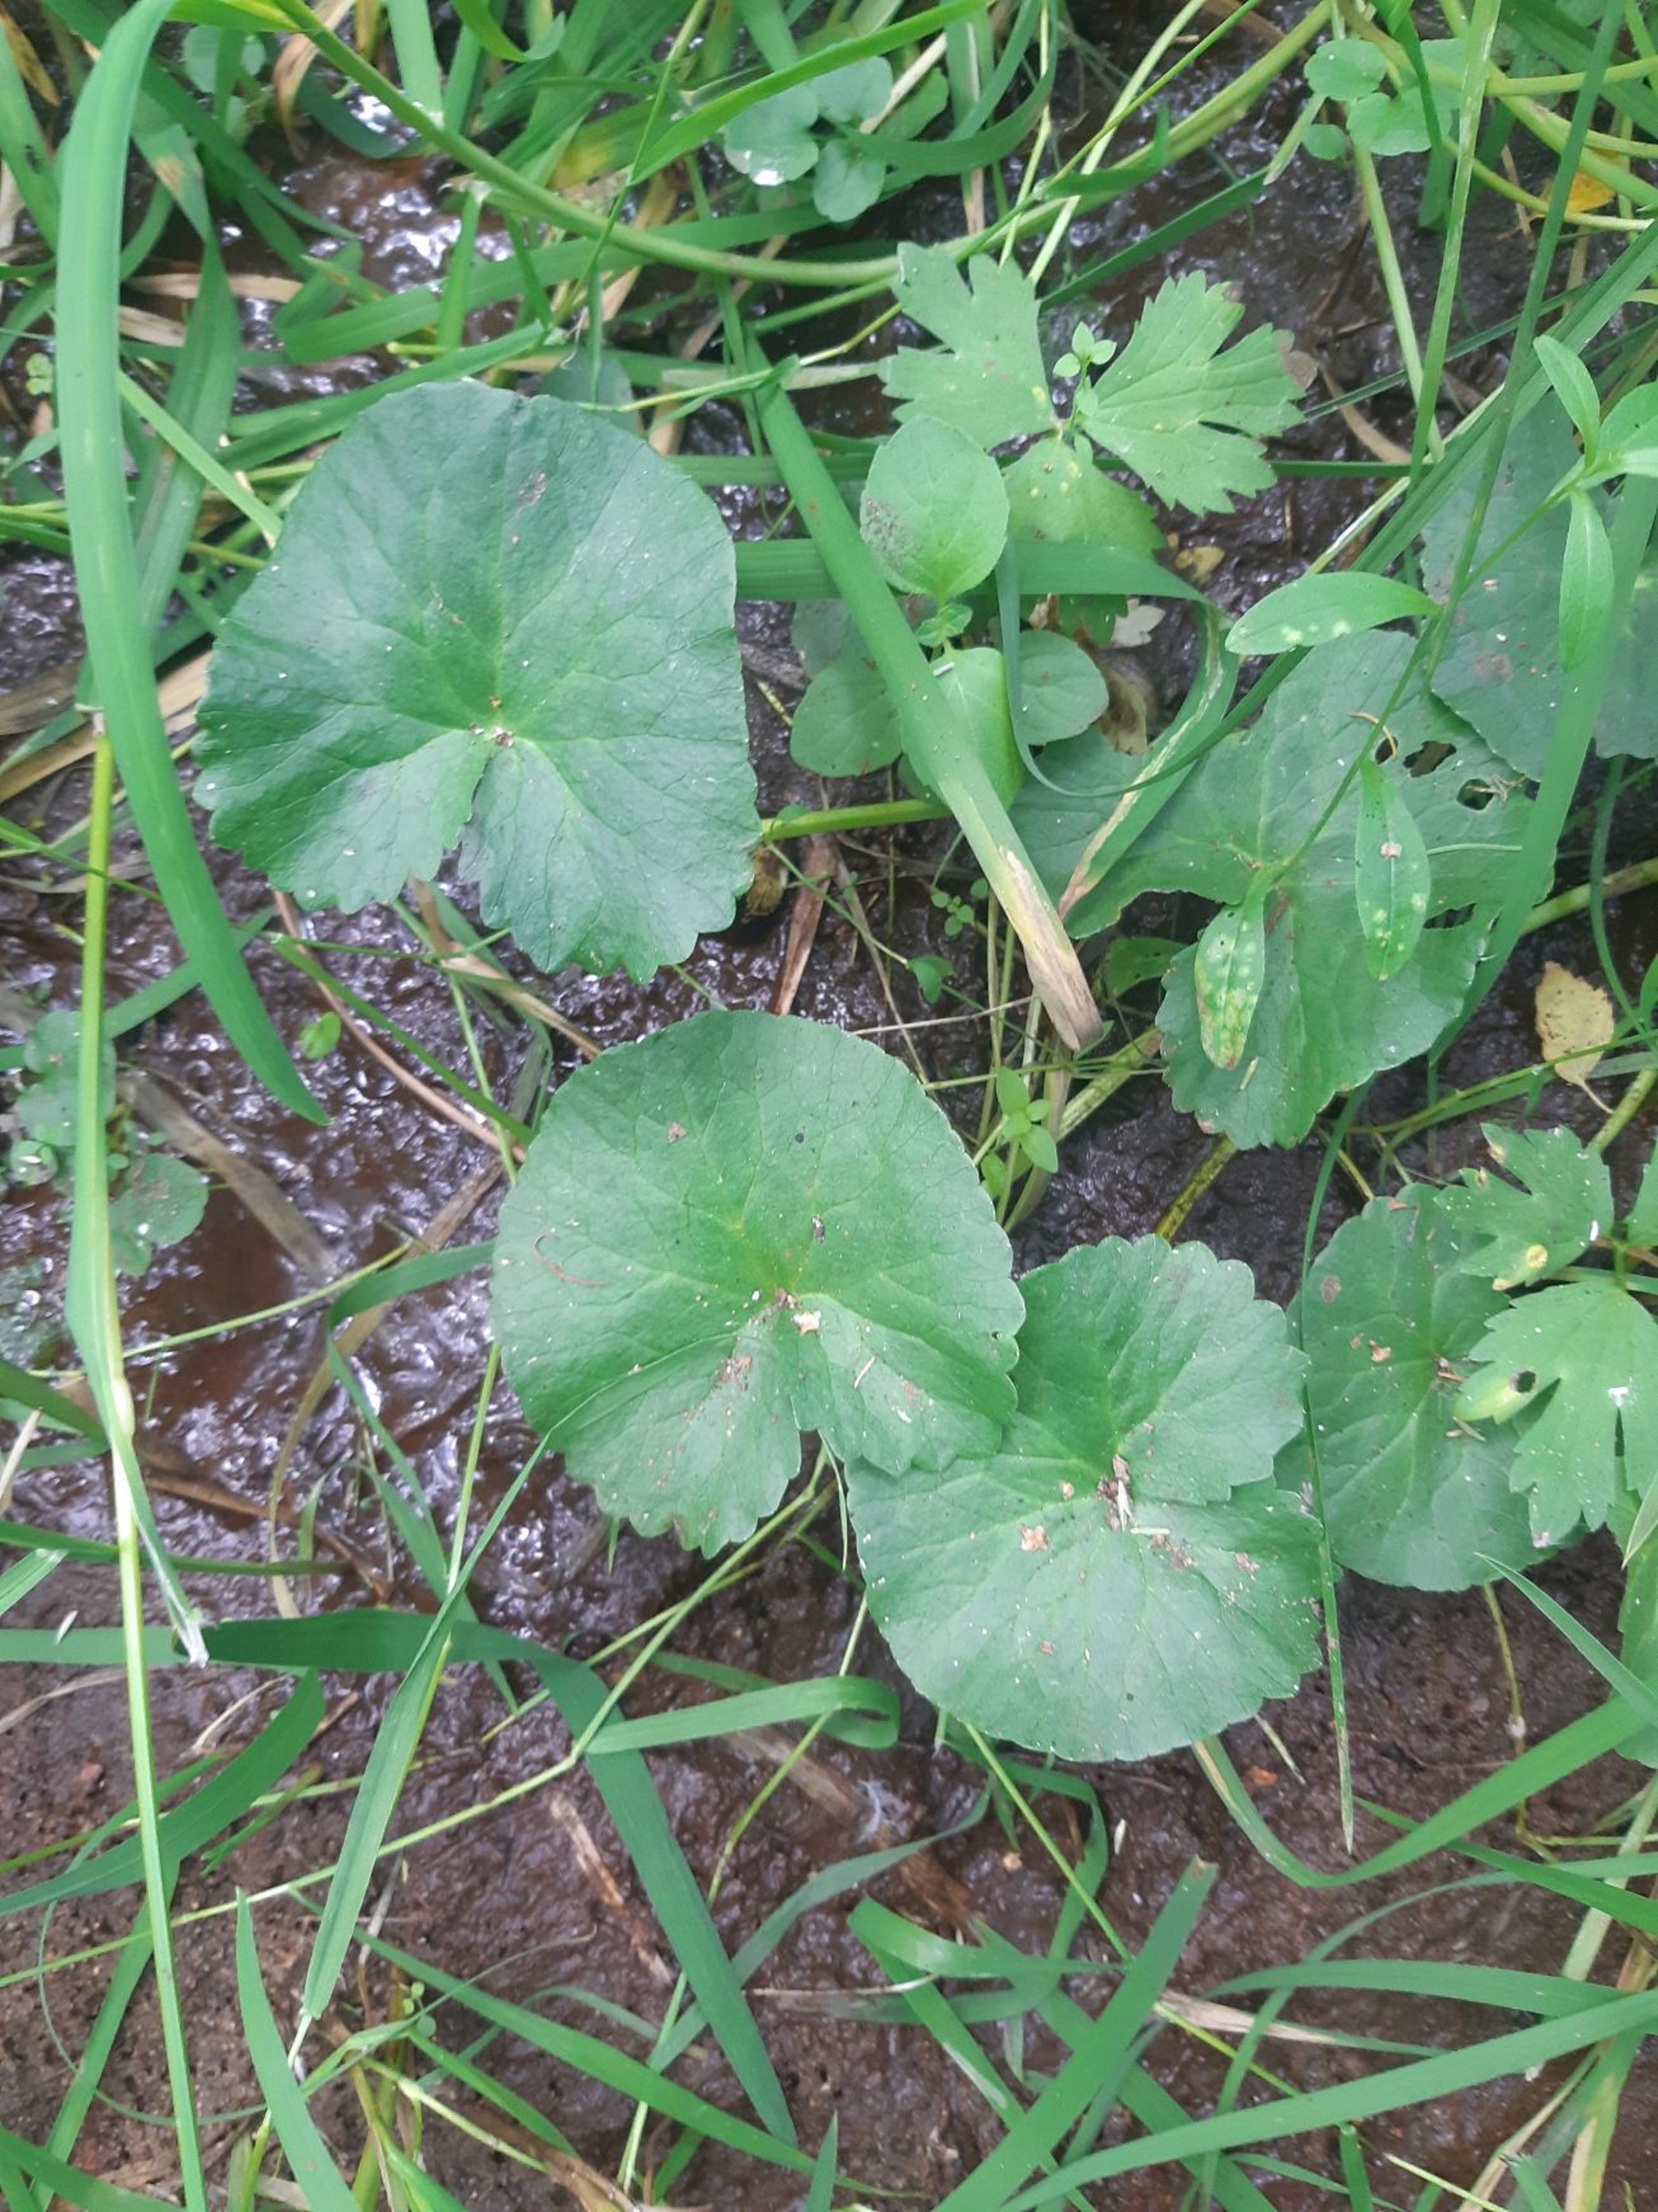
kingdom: Plantae
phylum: Tracheophyta
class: Magnoliopsida
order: Ranunculales
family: Ranunculaceae
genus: Caltha
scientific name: Caltha palustris
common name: Eng-kabbeleje
